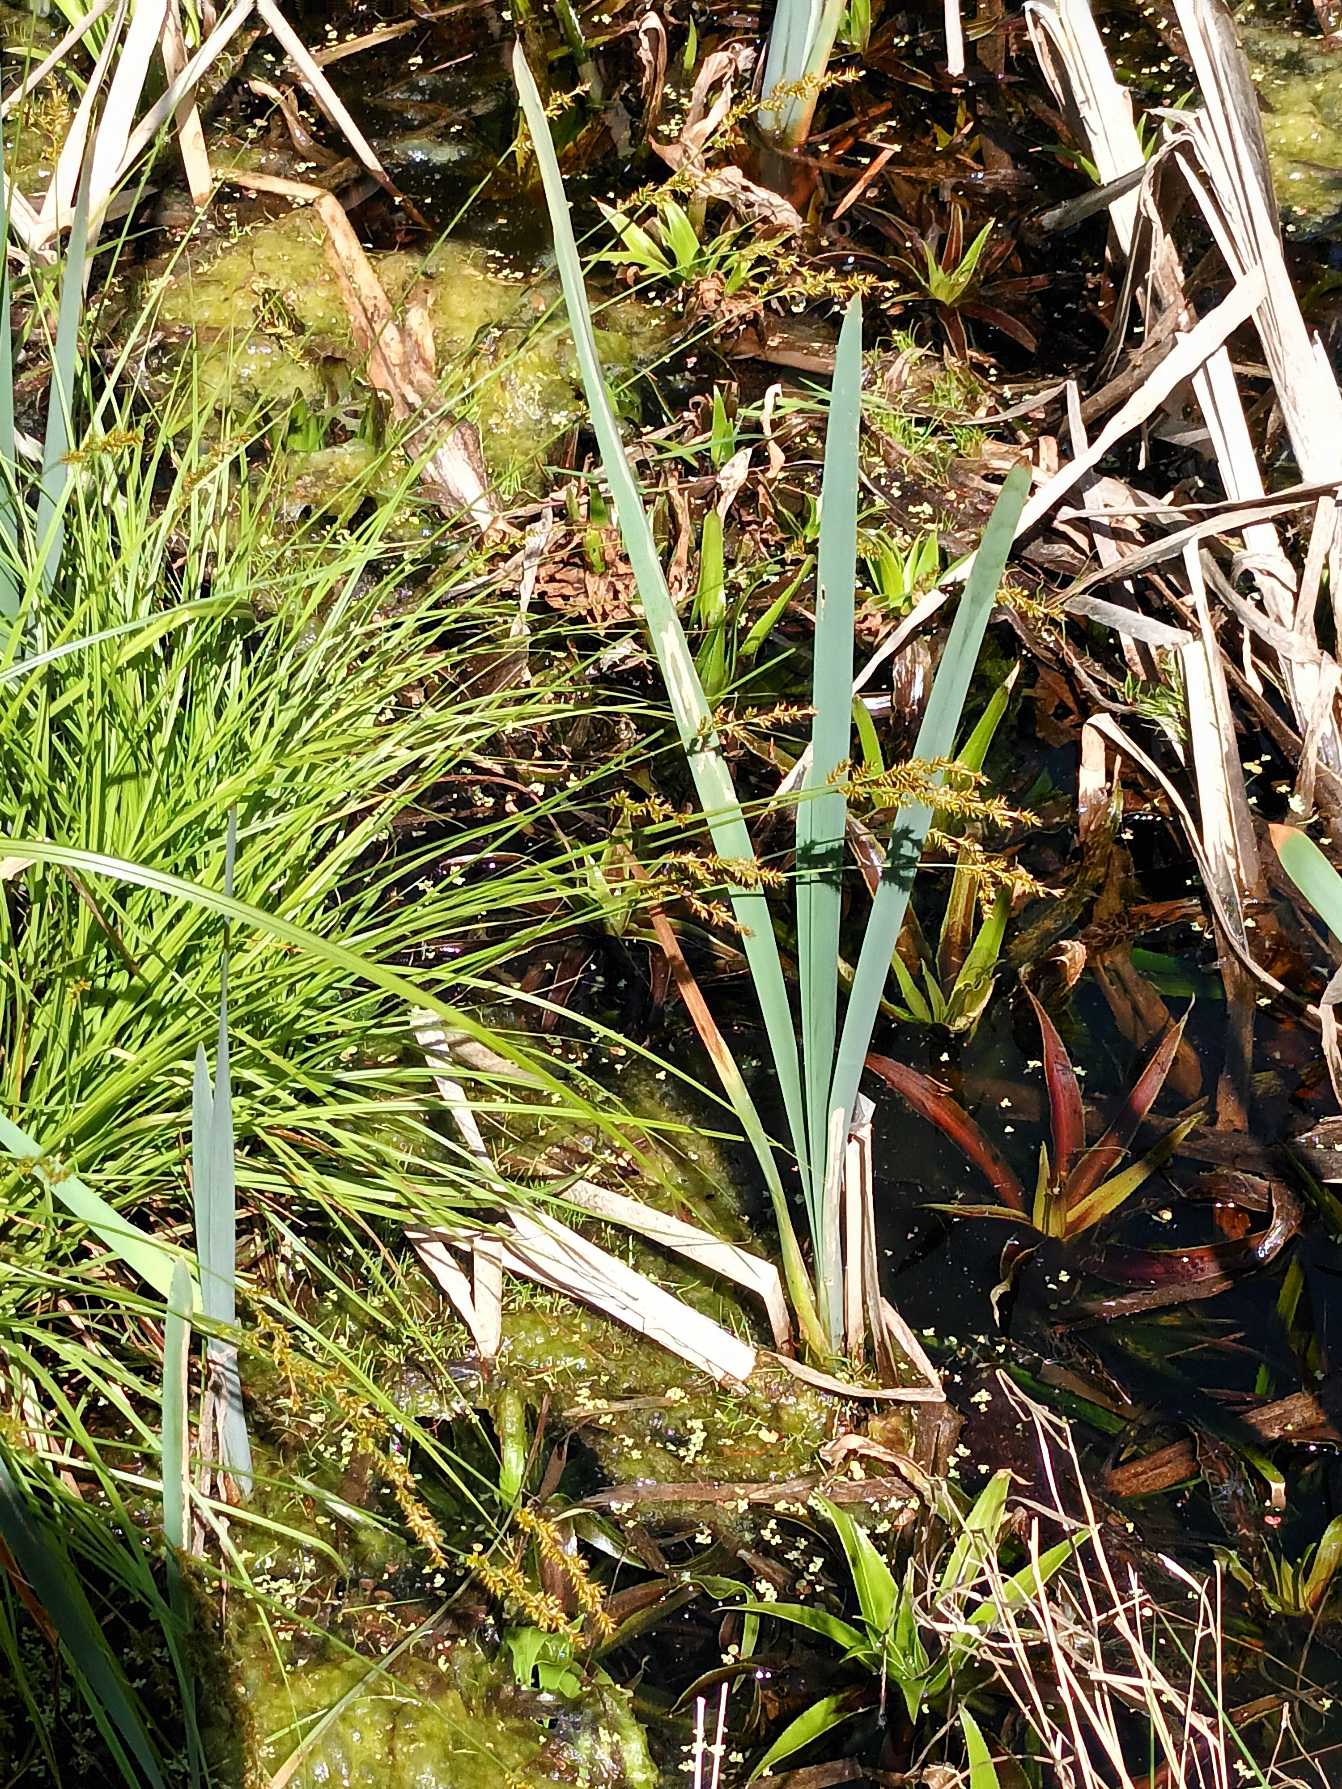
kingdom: Plantae
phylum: Tracheophyta
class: Liliopsida
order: Poales
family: Cyperaceae
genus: Carex
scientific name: Carex elongata
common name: Forlænget star
